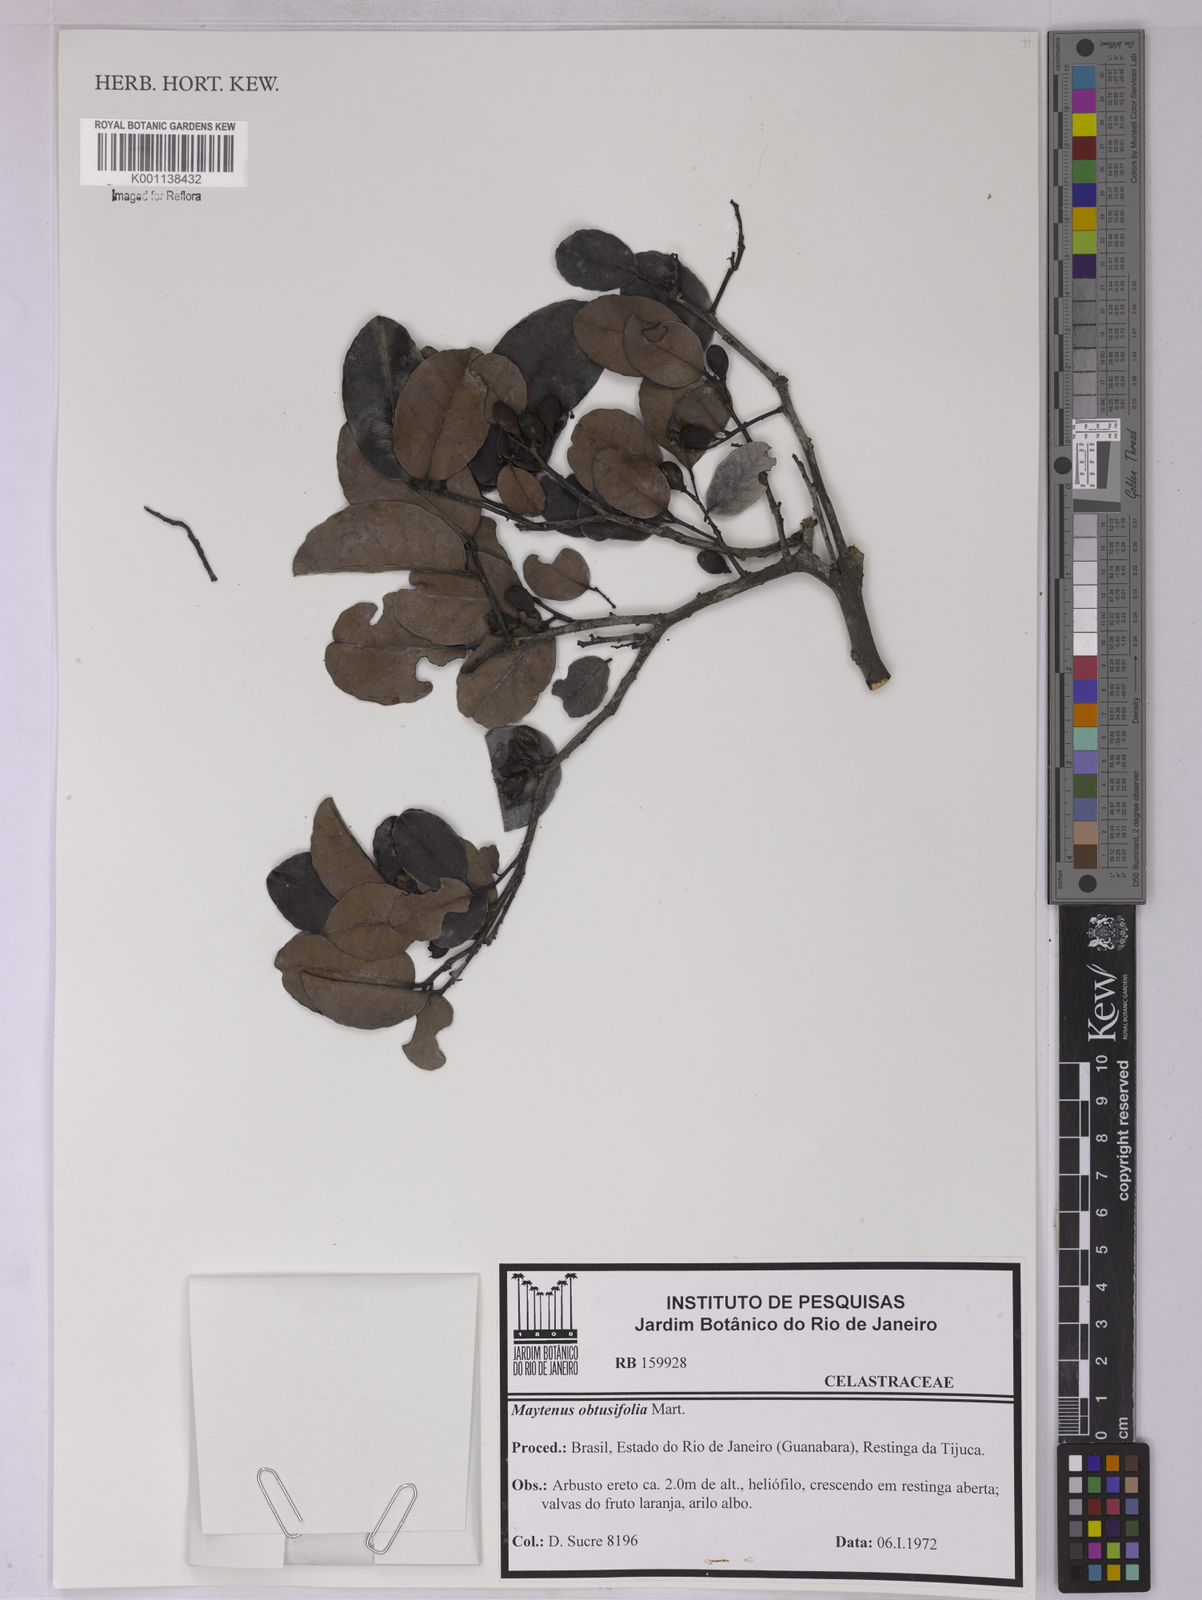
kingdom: Plantae
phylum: Tracheophyta
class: Magnoliopsida
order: Celastrales
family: Celastraceae
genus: Monteverdia
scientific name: Monteverdia obtusifolia
